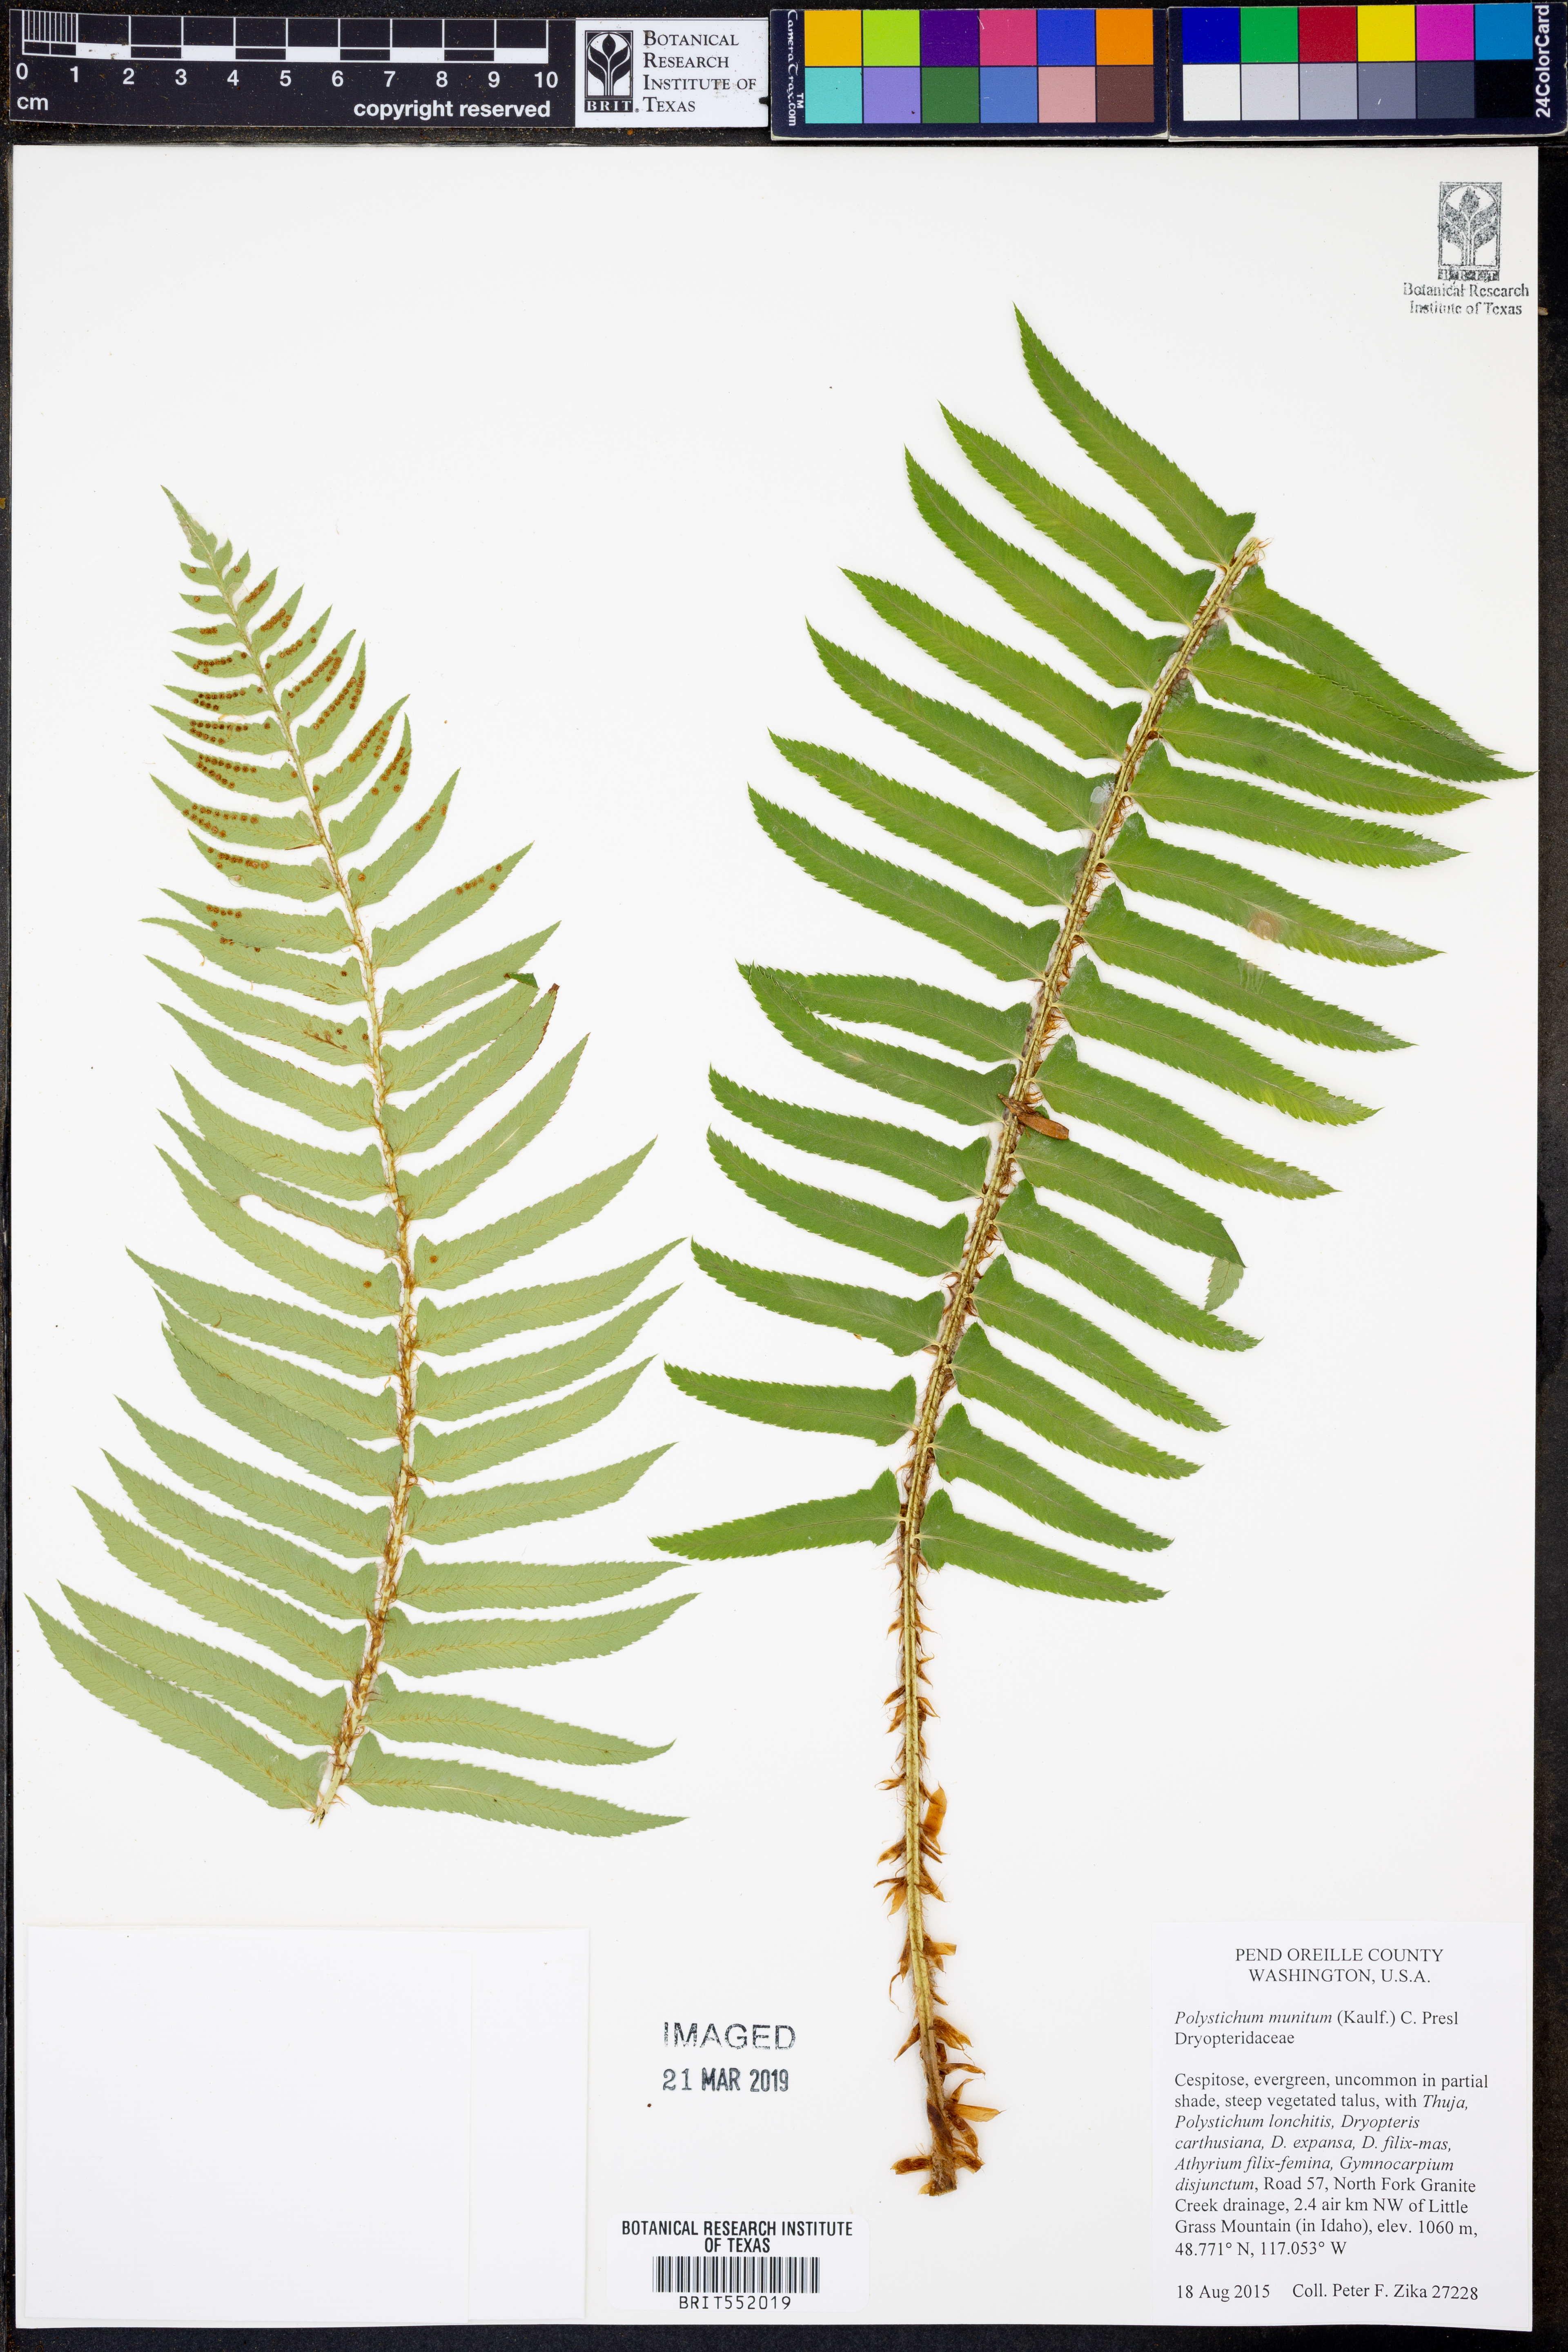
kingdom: Plantae
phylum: Tracheophyta
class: Polypodiopsida
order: Polypodiales
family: Dryopteridaceae
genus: Polystichum
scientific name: Polystichum munitum
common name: Western sword-fern
